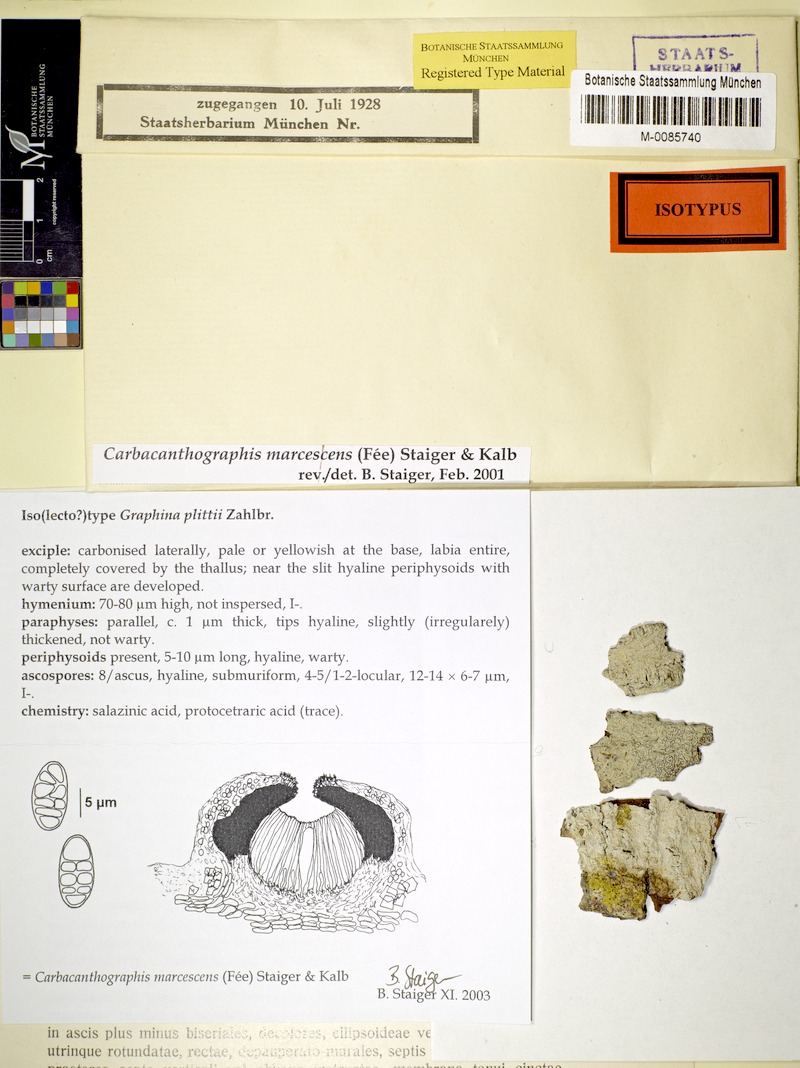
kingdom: Fungi
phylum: Ascomycota
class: Lecanoromycetes
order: Ostropales
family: Graphidaceae
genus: Graphina
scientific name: Graphina marcescens
